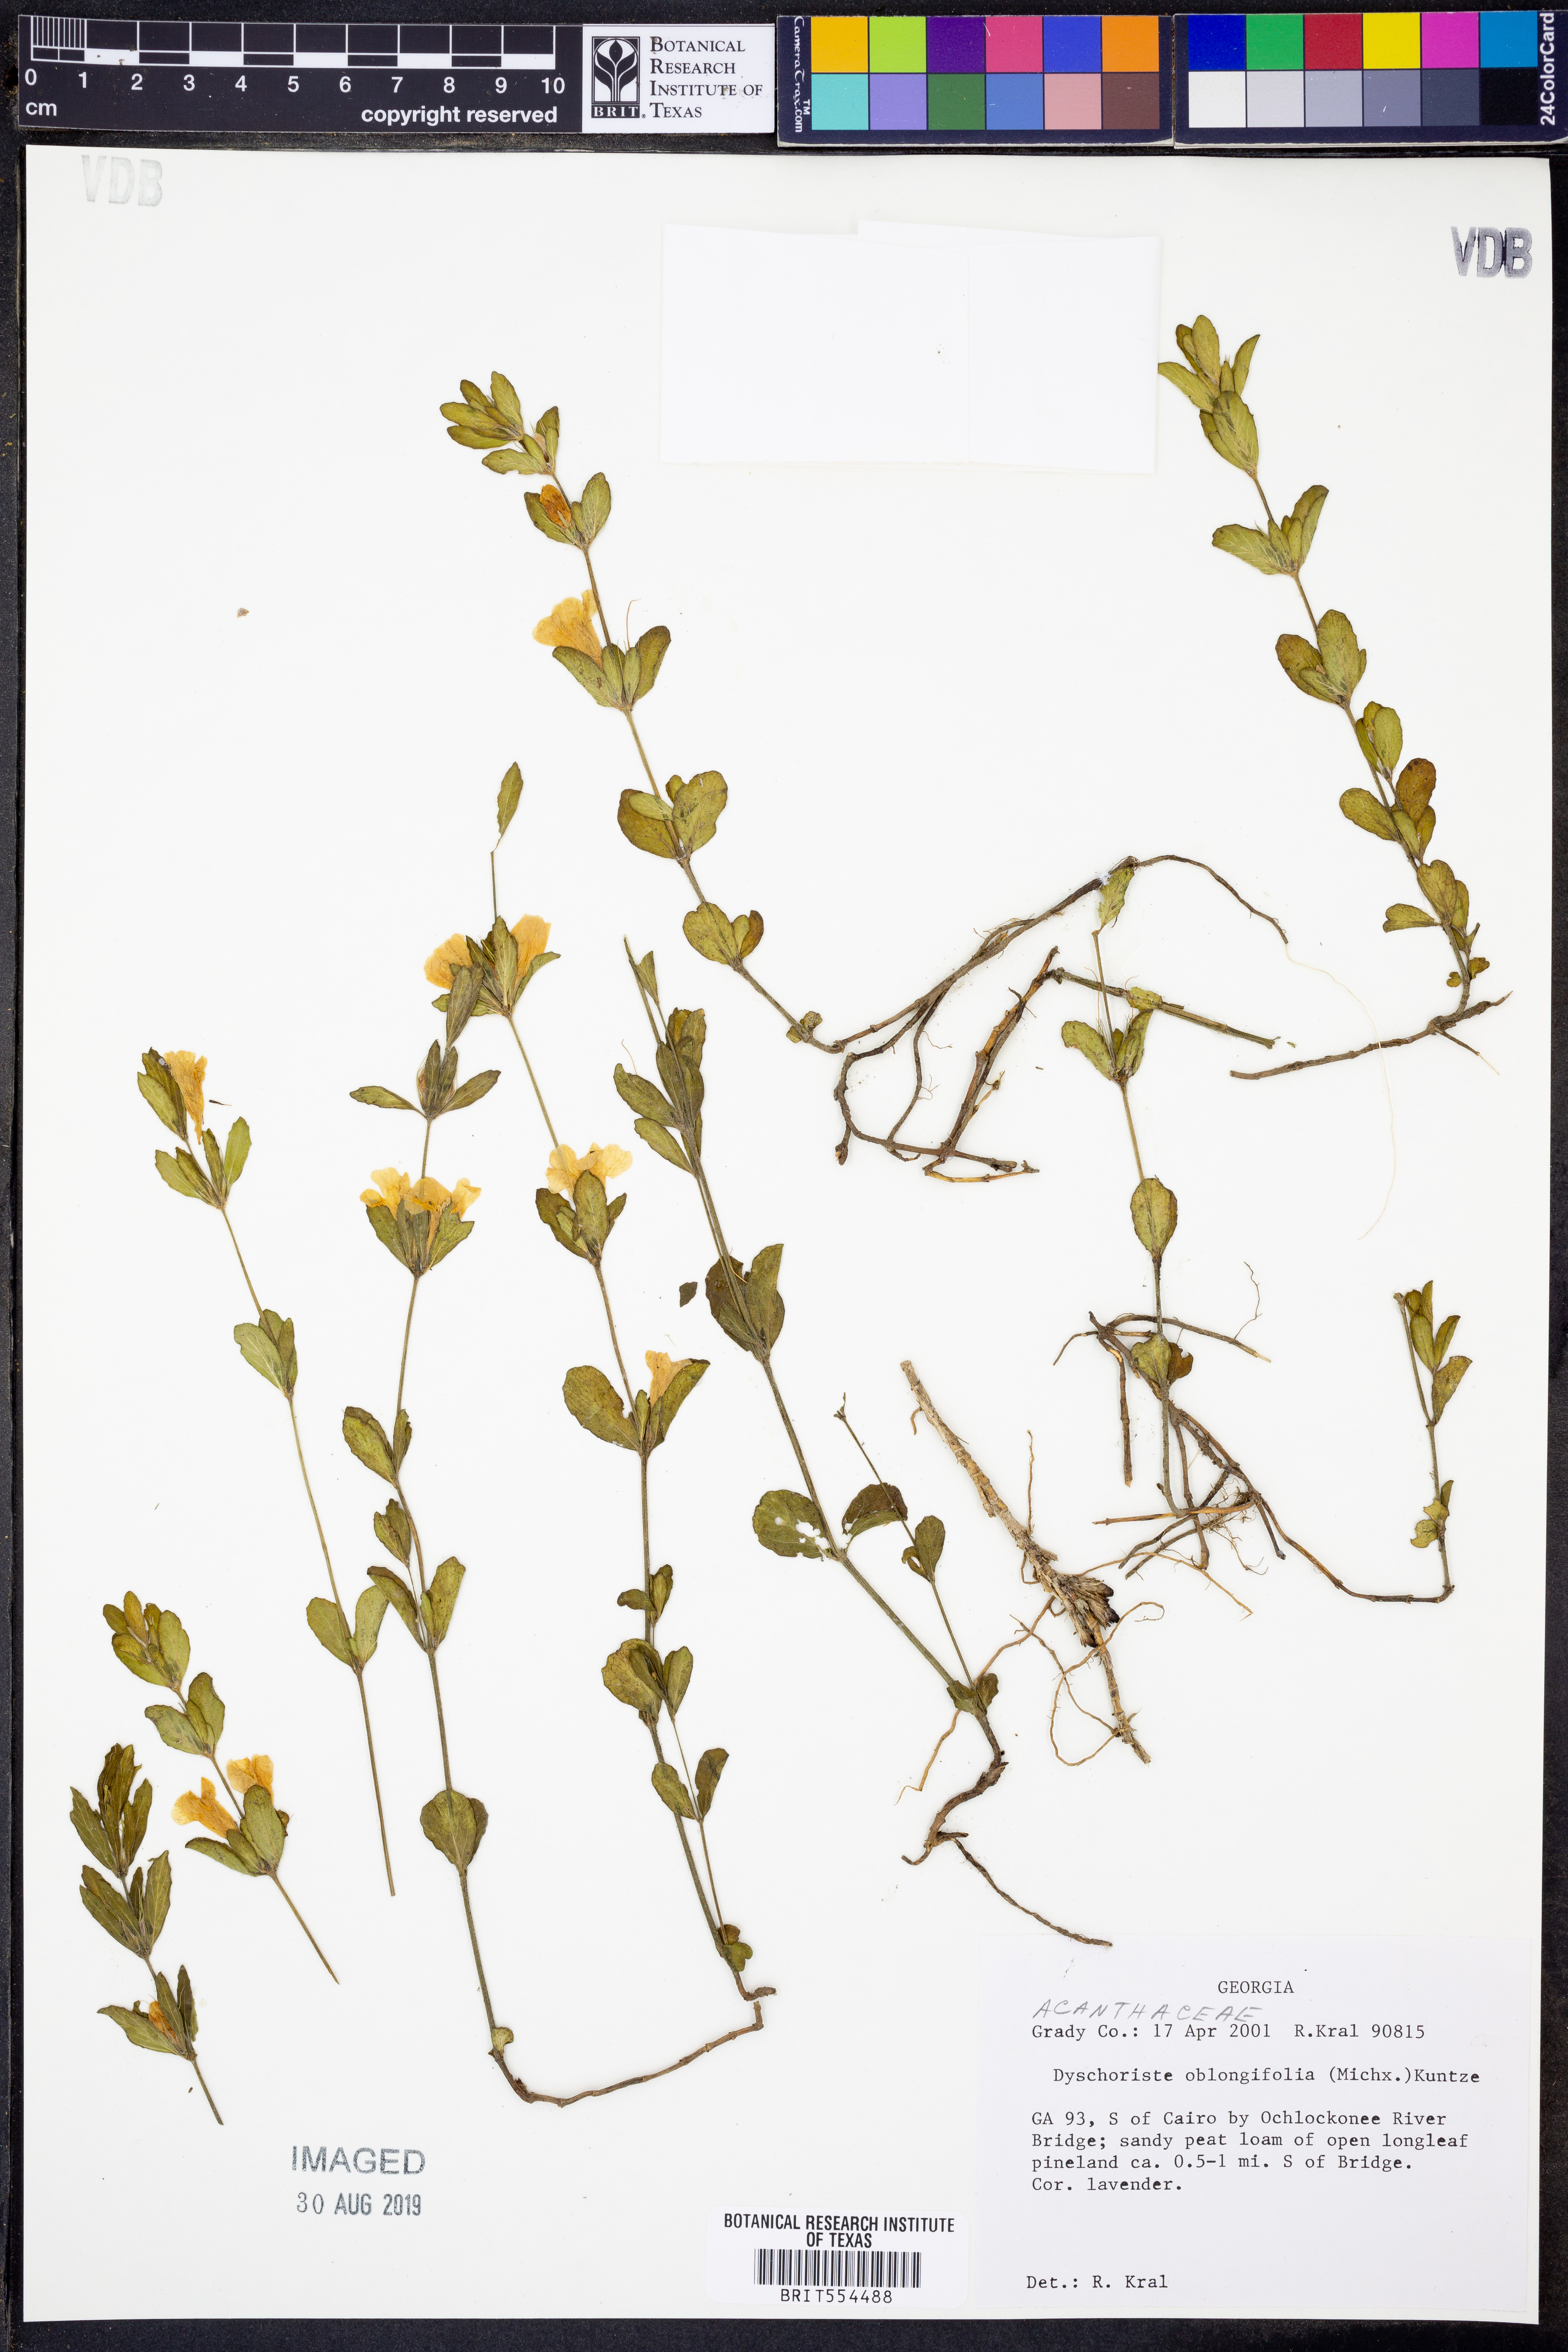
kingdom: Plantae
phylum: Tracheophyta
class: Magnoliopsida
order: Lamiales
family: Acanthaceae
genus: Dyschoriste
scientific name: Dyschoriste oblongifolia
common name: Blue twinflower
